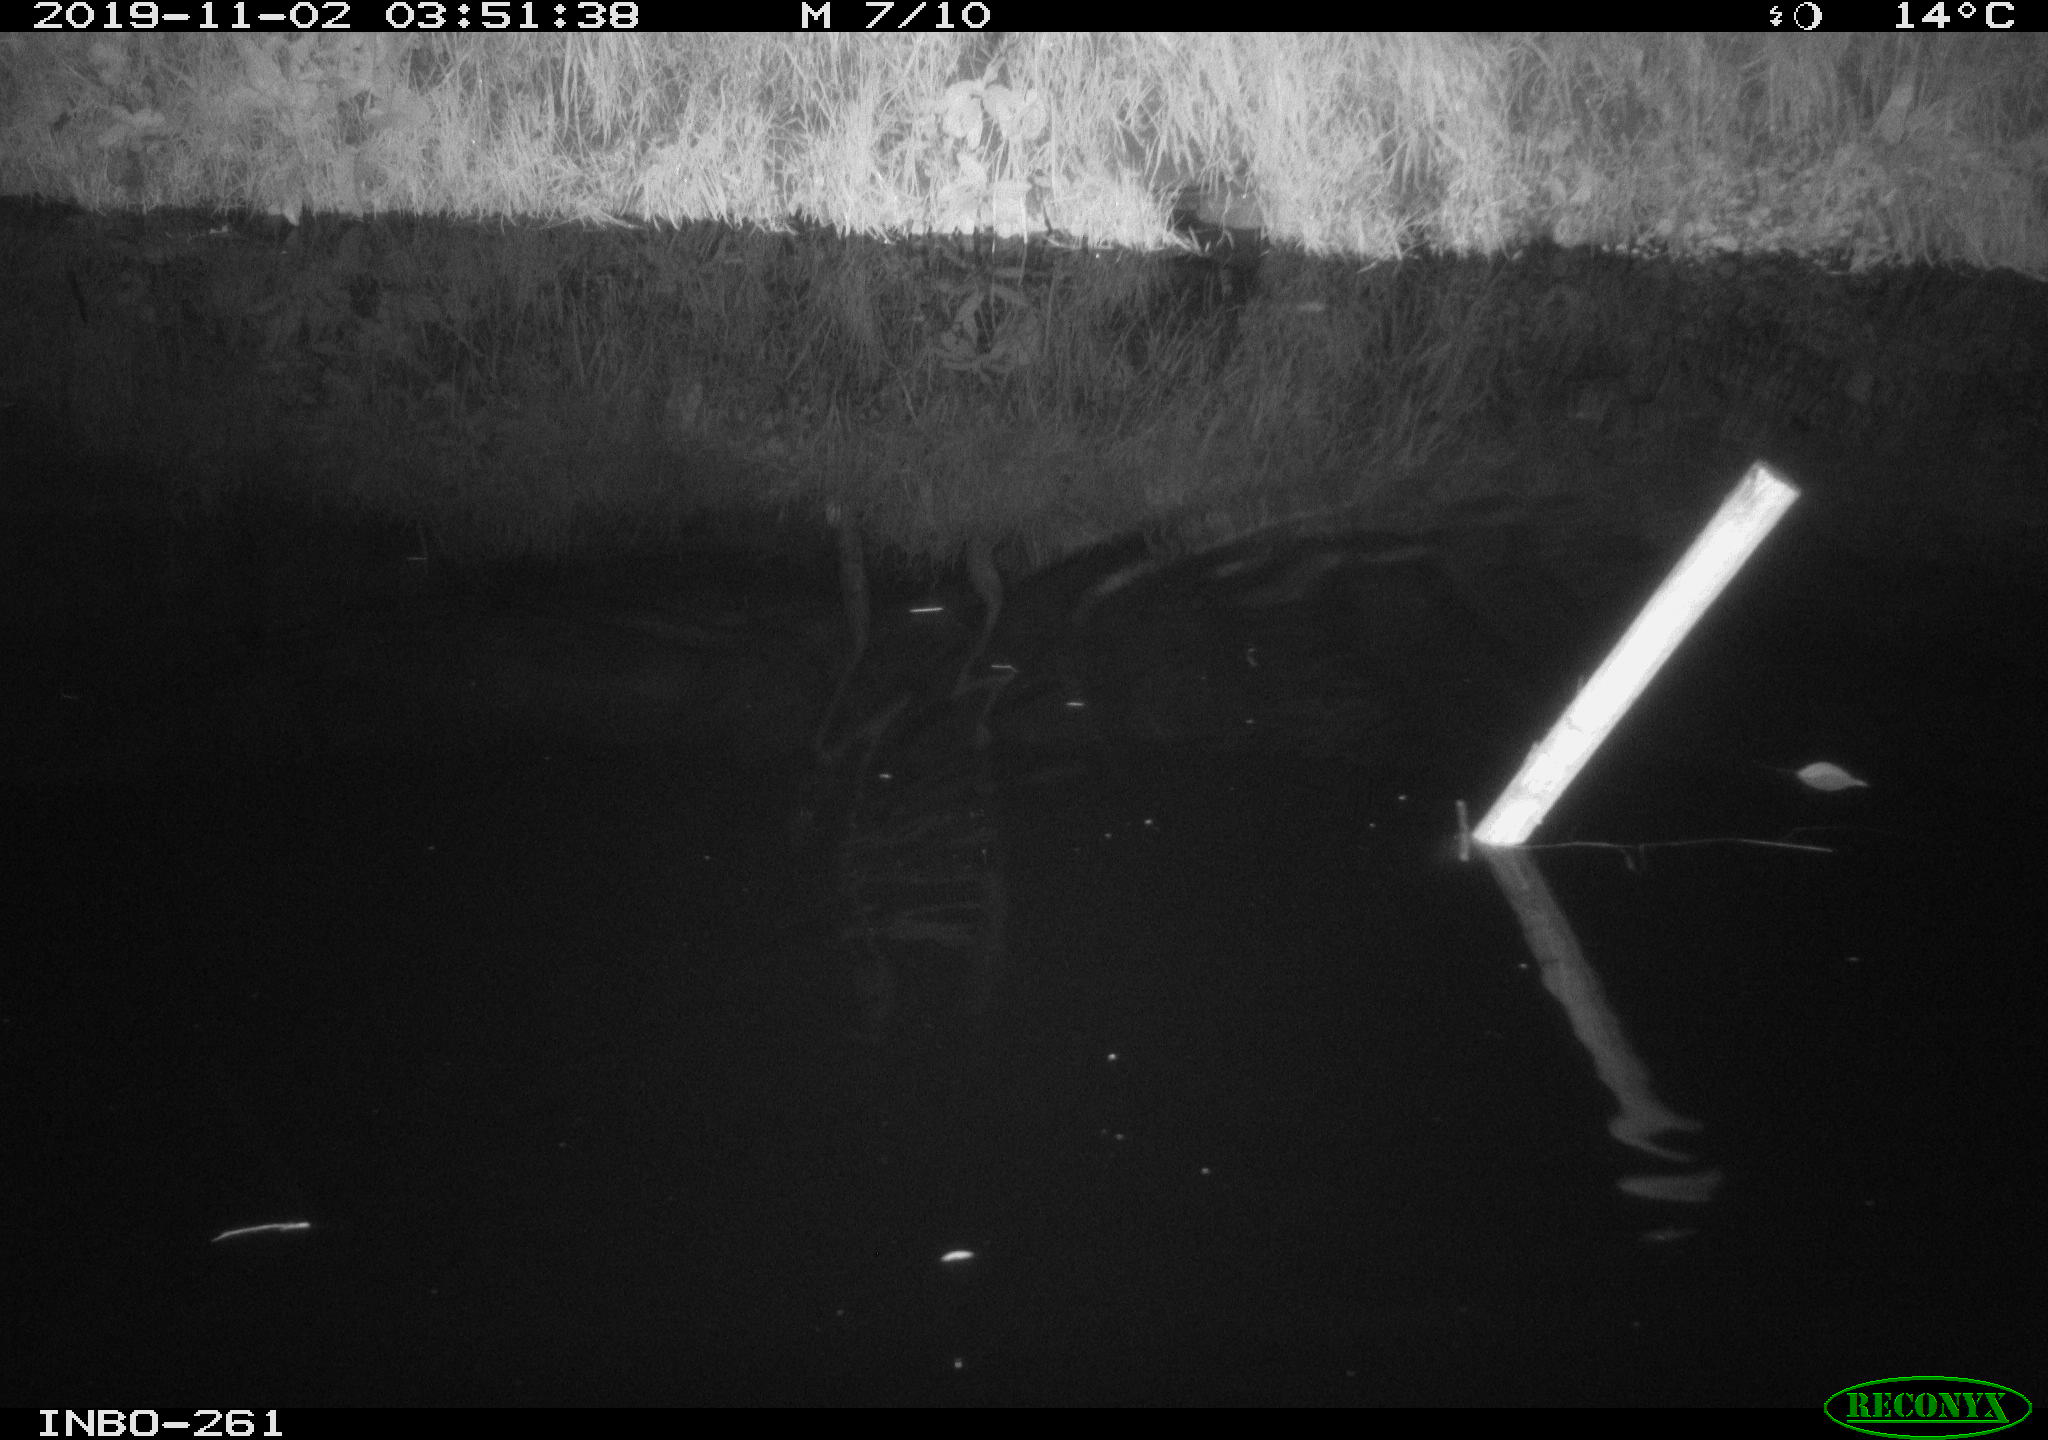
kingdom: Animalia
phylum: Chordata
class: Mammalia
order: Rodentia
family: Muridae
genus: Rattus
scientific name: Rattus norvegicus
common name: Brown rat
